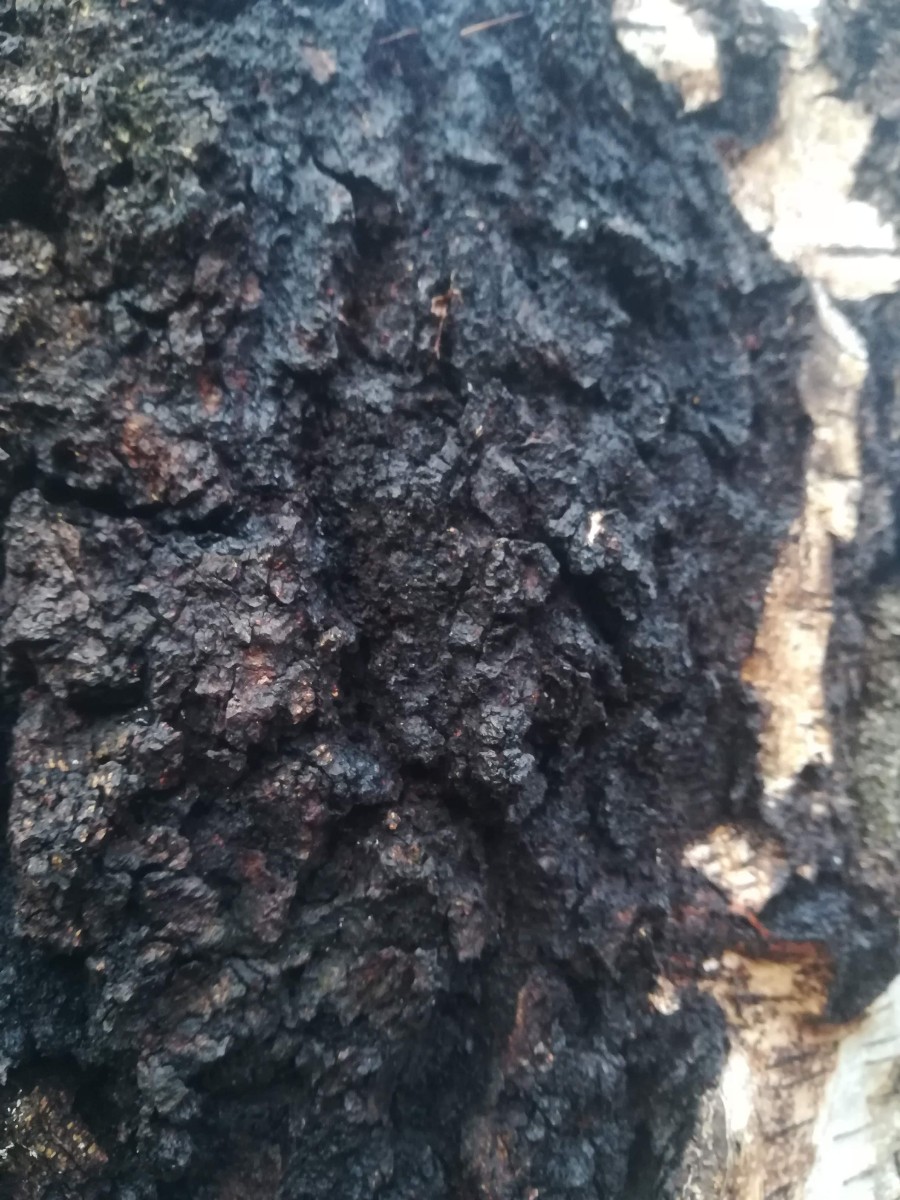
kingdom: Fungi
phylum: Basidiomycota
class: Agaricomycetes
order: Hymenochaetales
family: Hymenochaetaceae
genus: Inonotus
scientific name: Inonotus obliquus
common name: birke-spejlporesvamp
